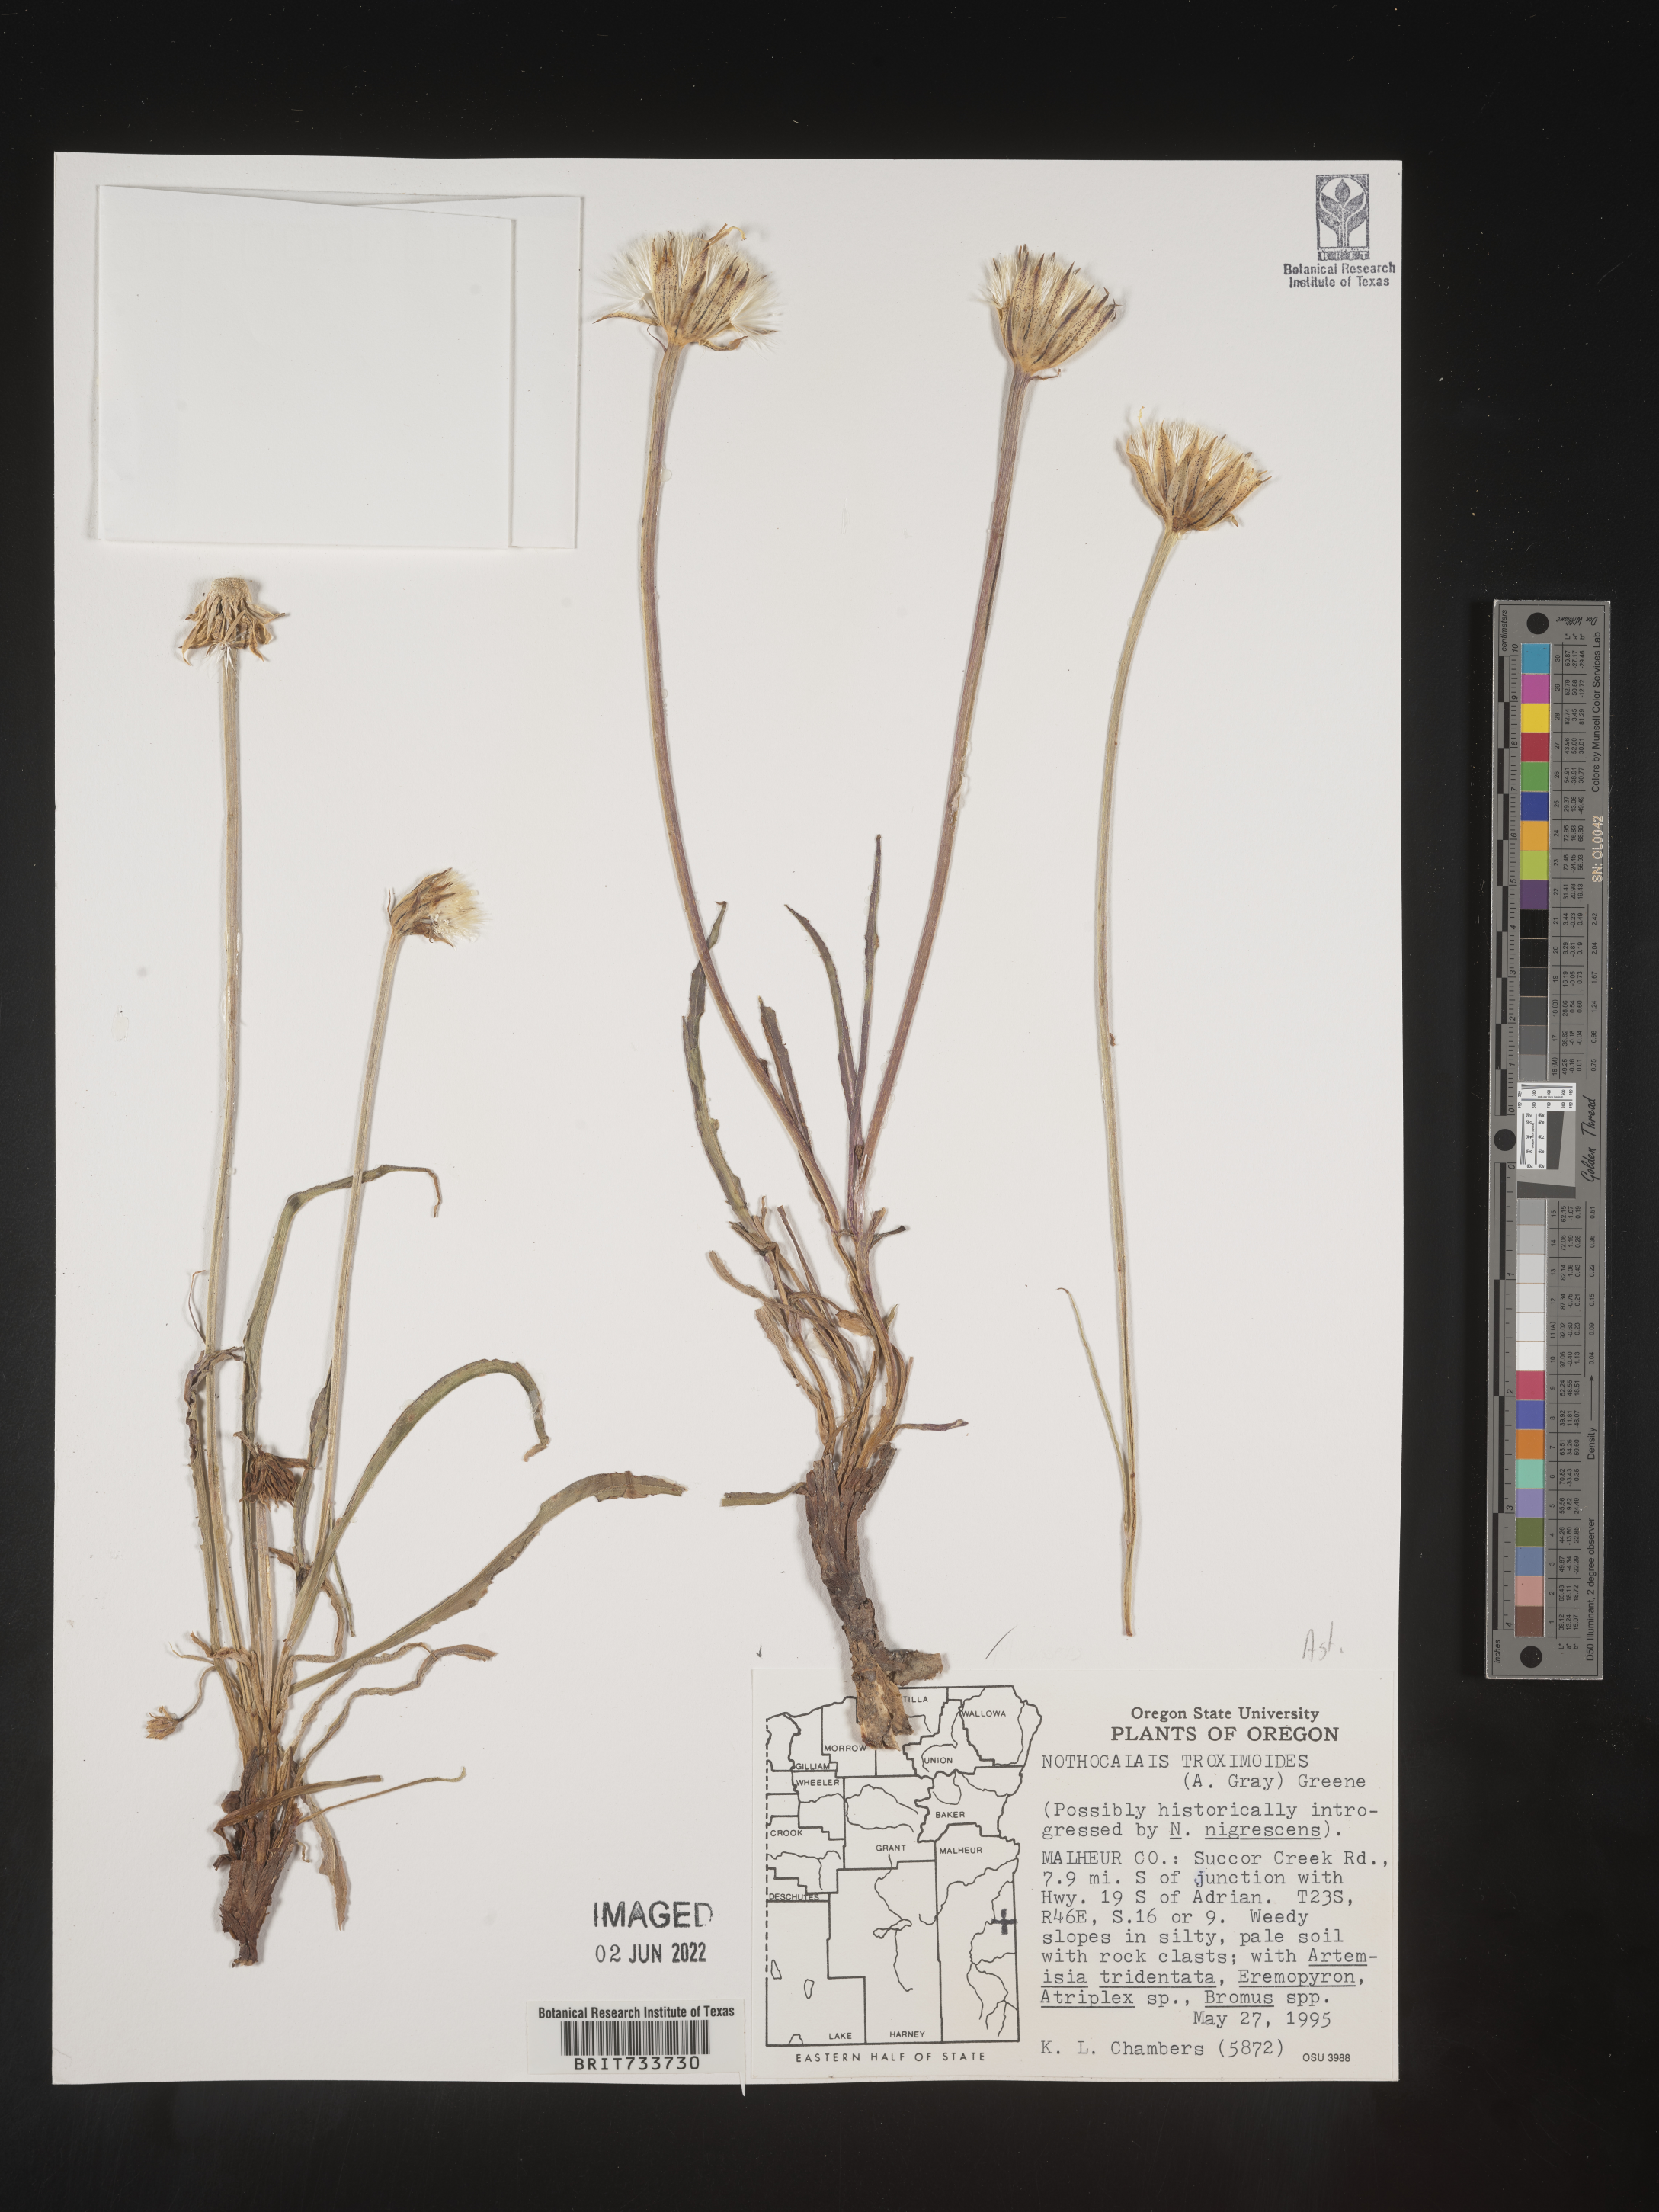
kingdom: Plantae
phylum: Tracheophyta
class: Magnoliopsida
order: Asterales
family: Asteraceae
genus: Microseris
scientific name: Microseris
